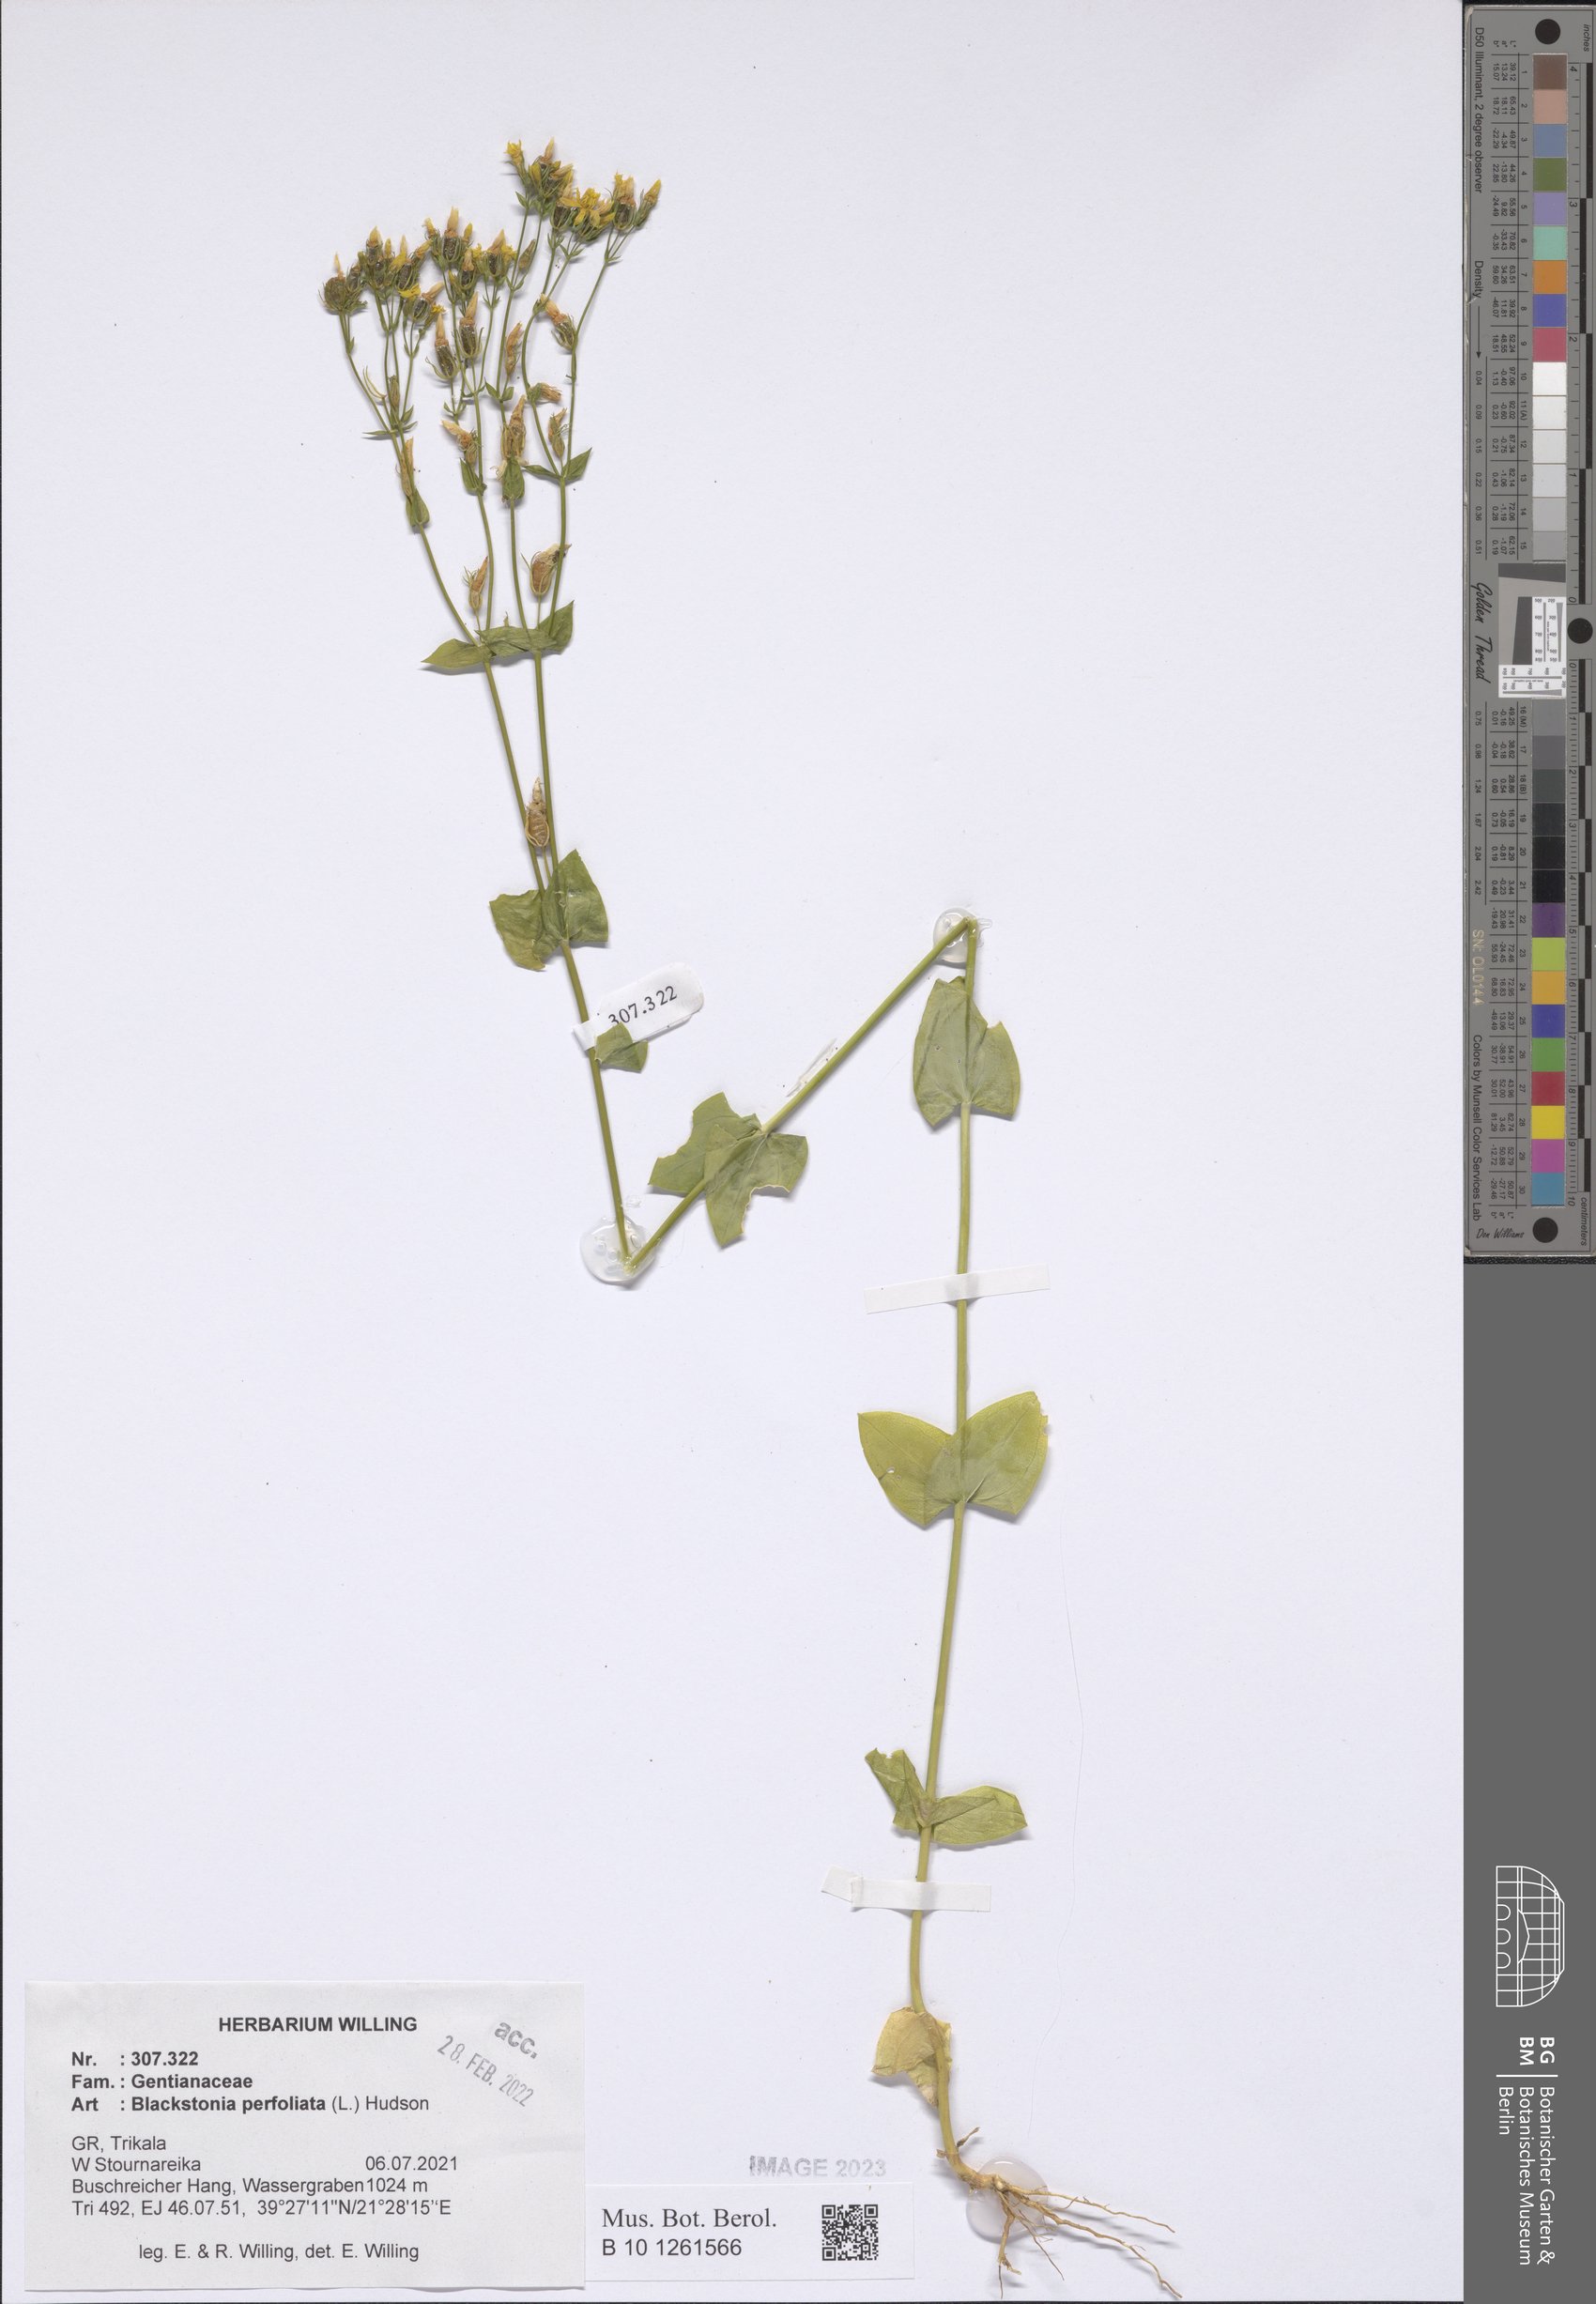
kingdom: Plantae
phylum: Tracheophyta
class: Magnoliopsida
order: Gentianales
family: Gentianaceae
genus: Blackstonia
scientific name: Blackstonia perfoliata
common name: Yellow-wort
